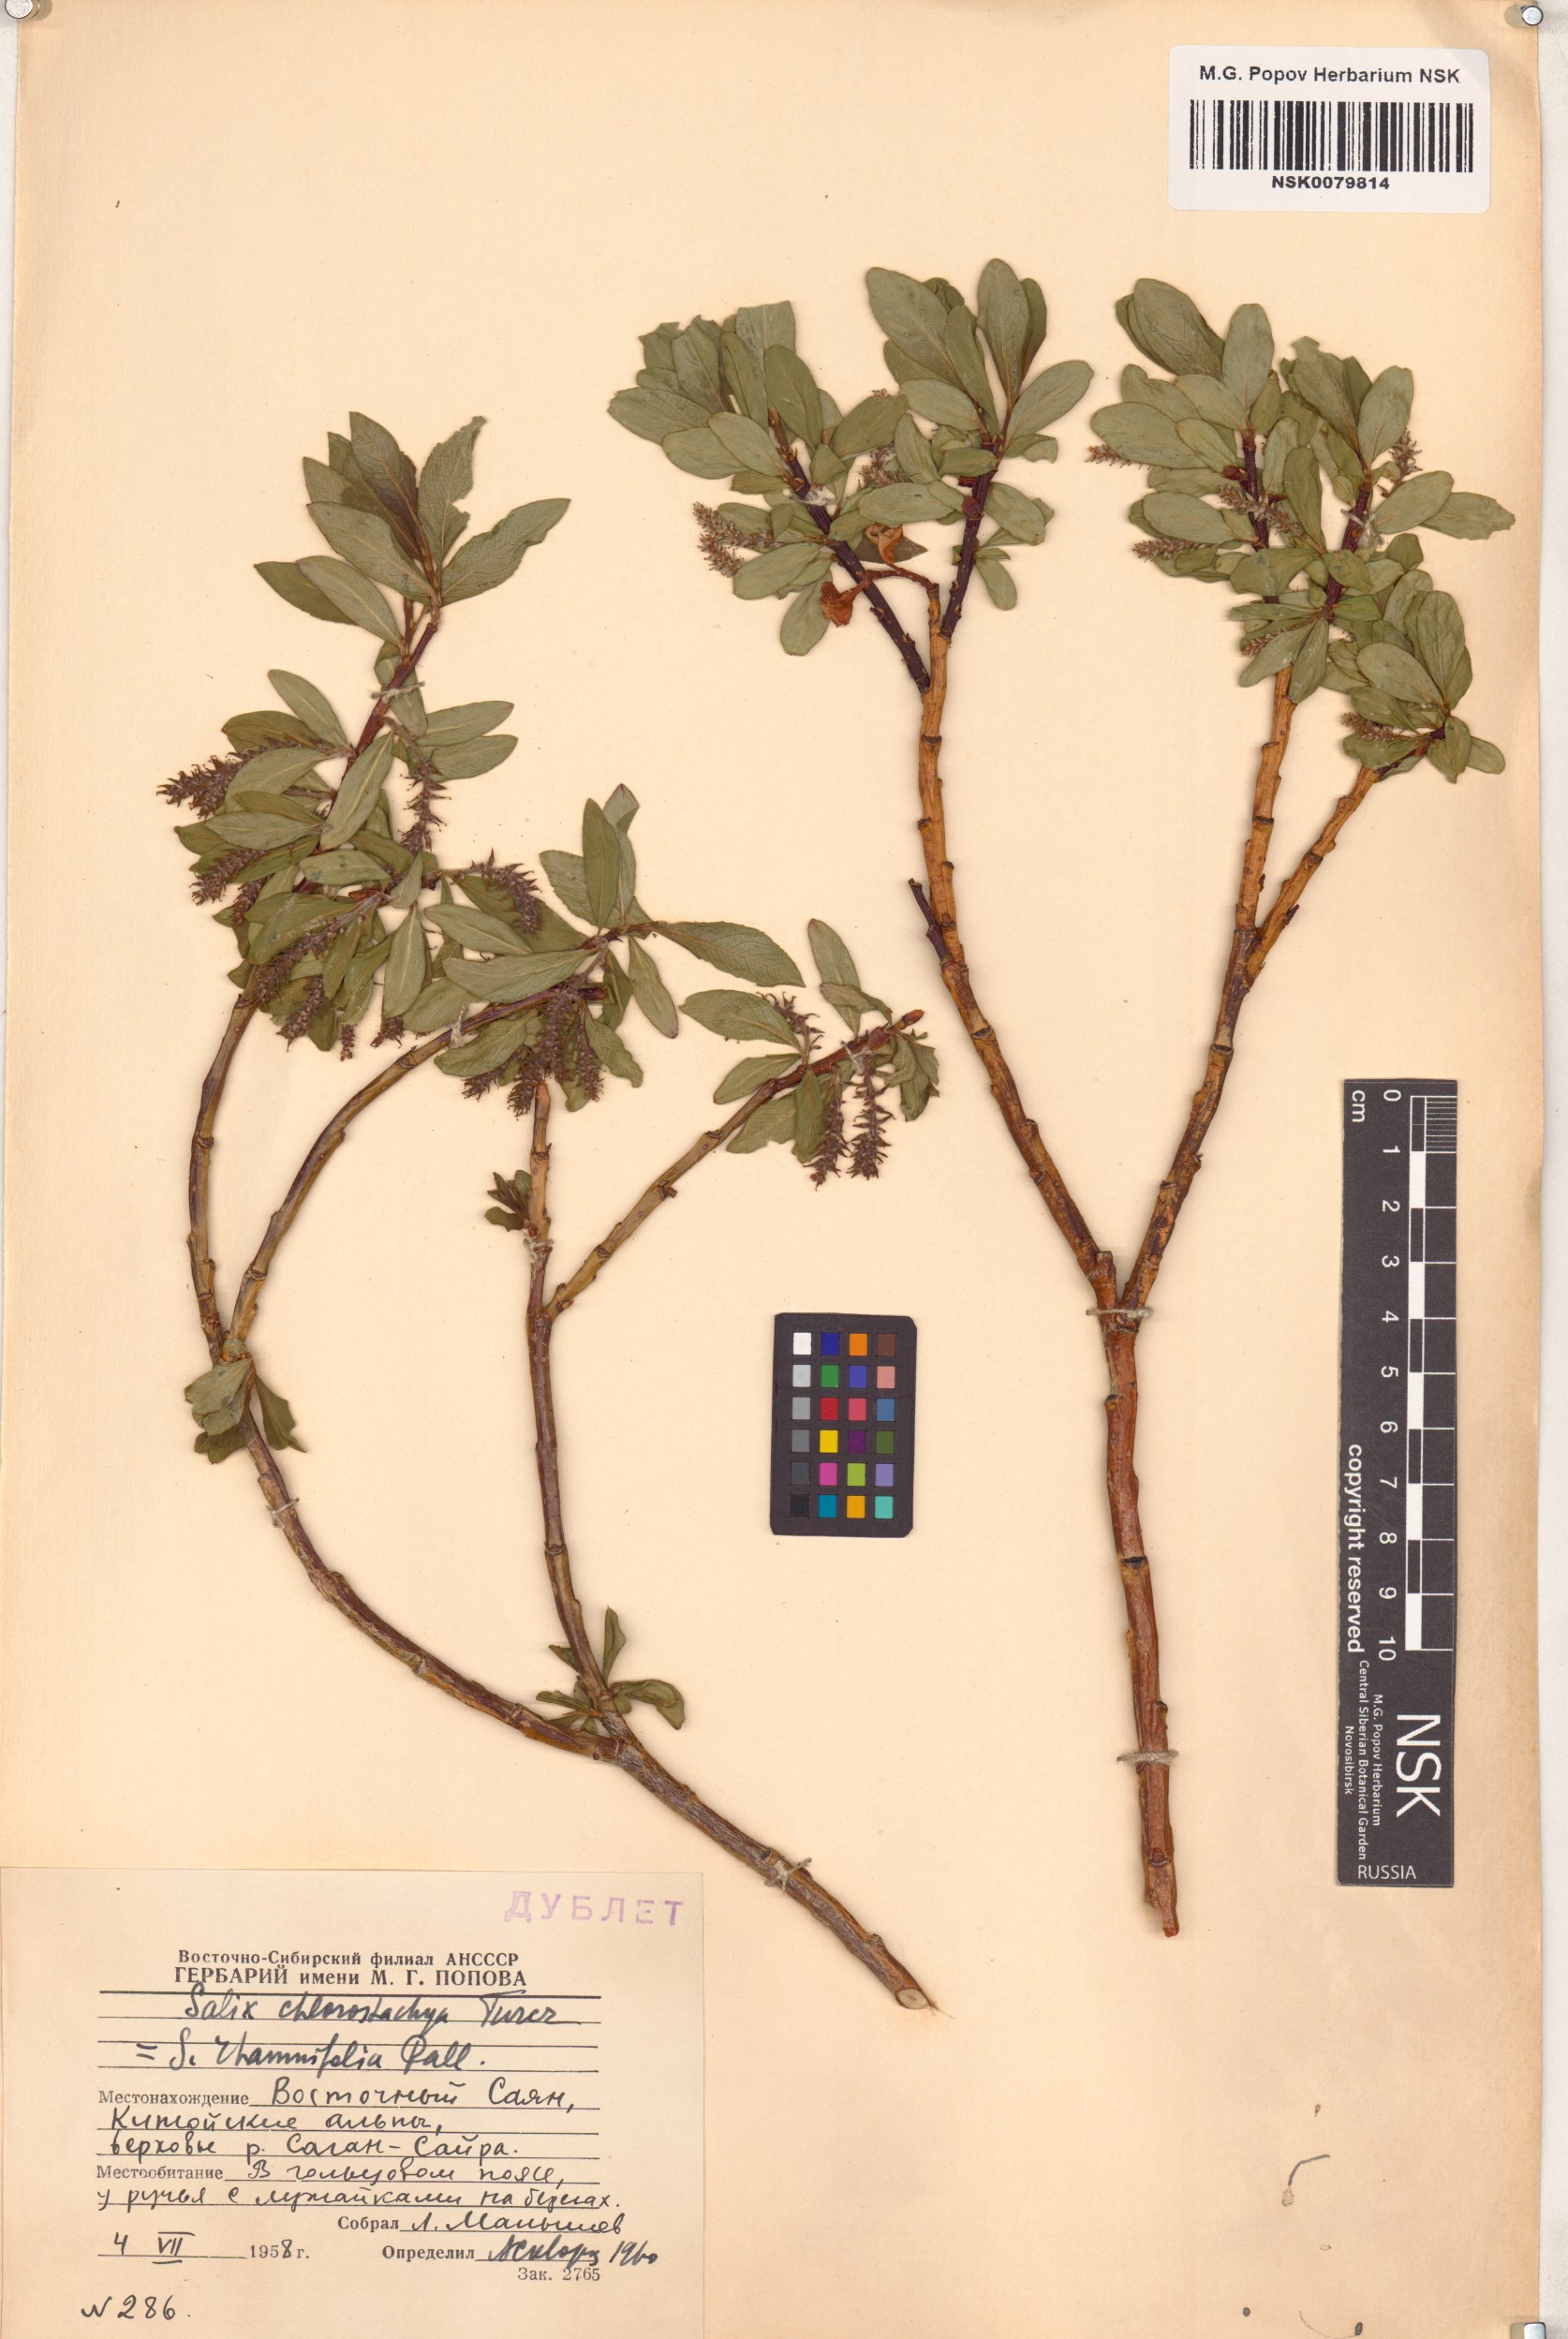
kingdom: Plantae
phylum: Tracheophyta
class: Magnoliopsida
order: Malpighiales
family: Salicaceae
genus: Salix
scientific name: Salix rhamnifolia
